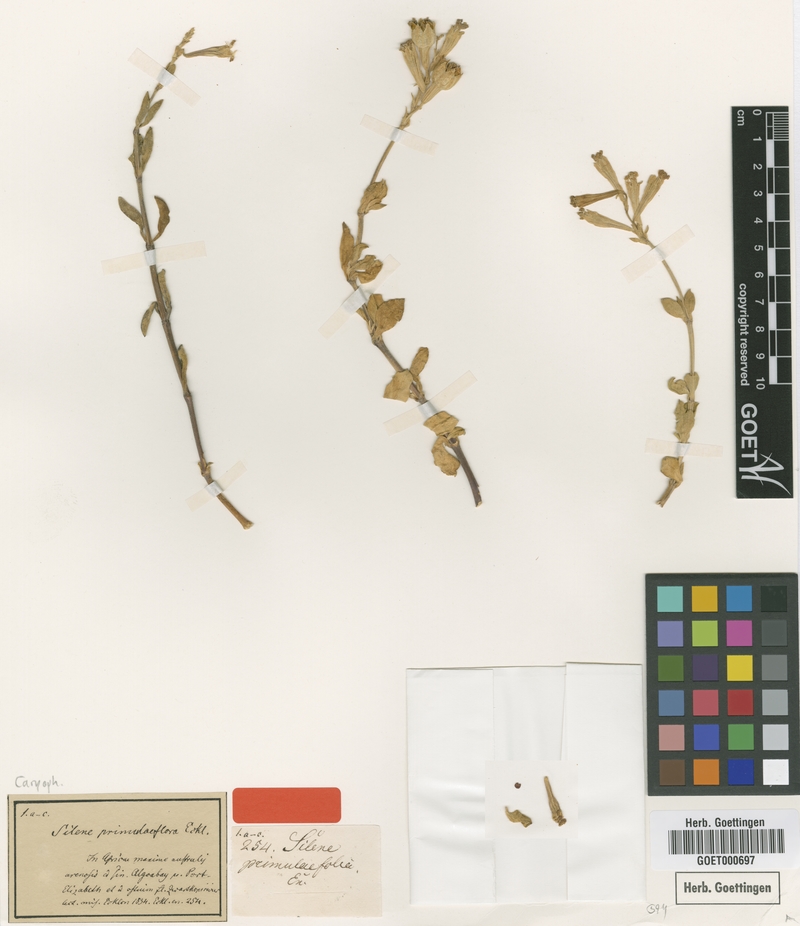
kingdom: Plantae
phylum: Tracheophyta
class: Magnoliopsida
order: Caryophyllales
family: Caryophyllaceae
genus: Silene
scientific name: Silene crassifolia
